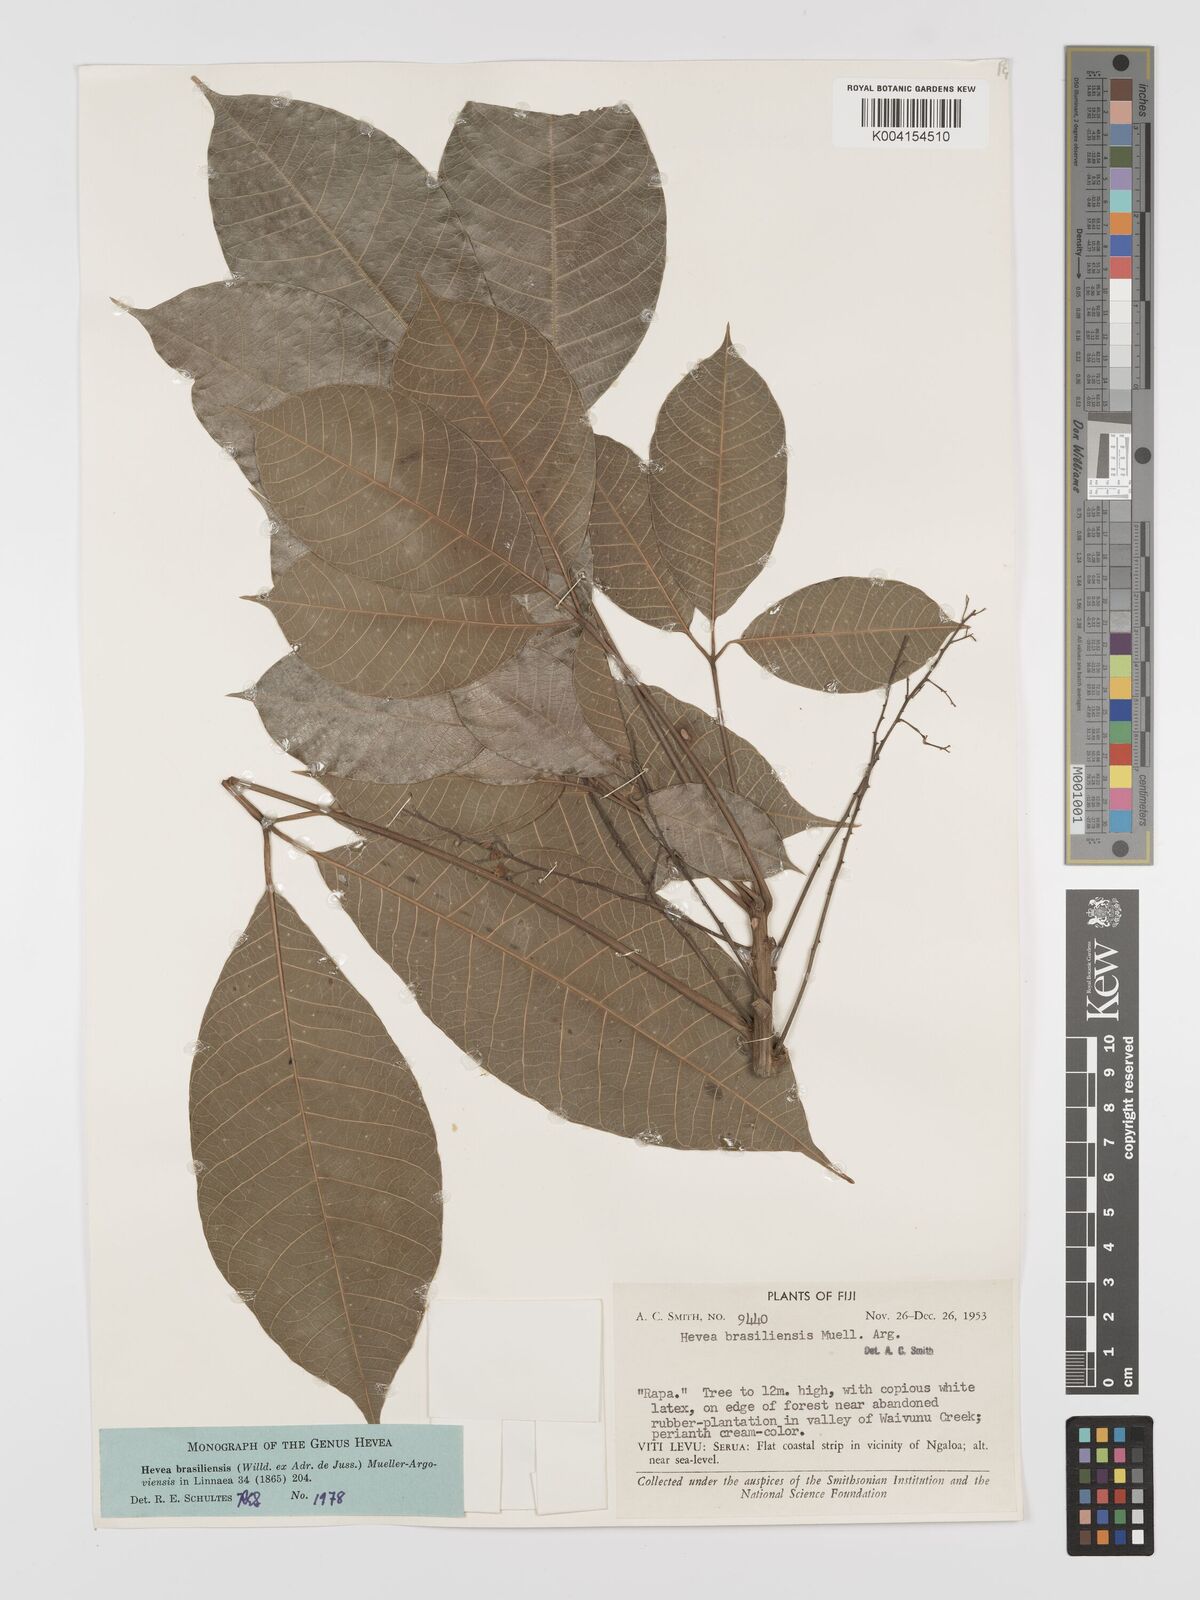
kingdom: Plantae
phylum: Tracheophyta
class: Magnoliopsida
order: Malpighiales
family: Euphorbiaceae
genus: Hevea
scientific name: Hevea brasiliensis
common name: Natural rubber
